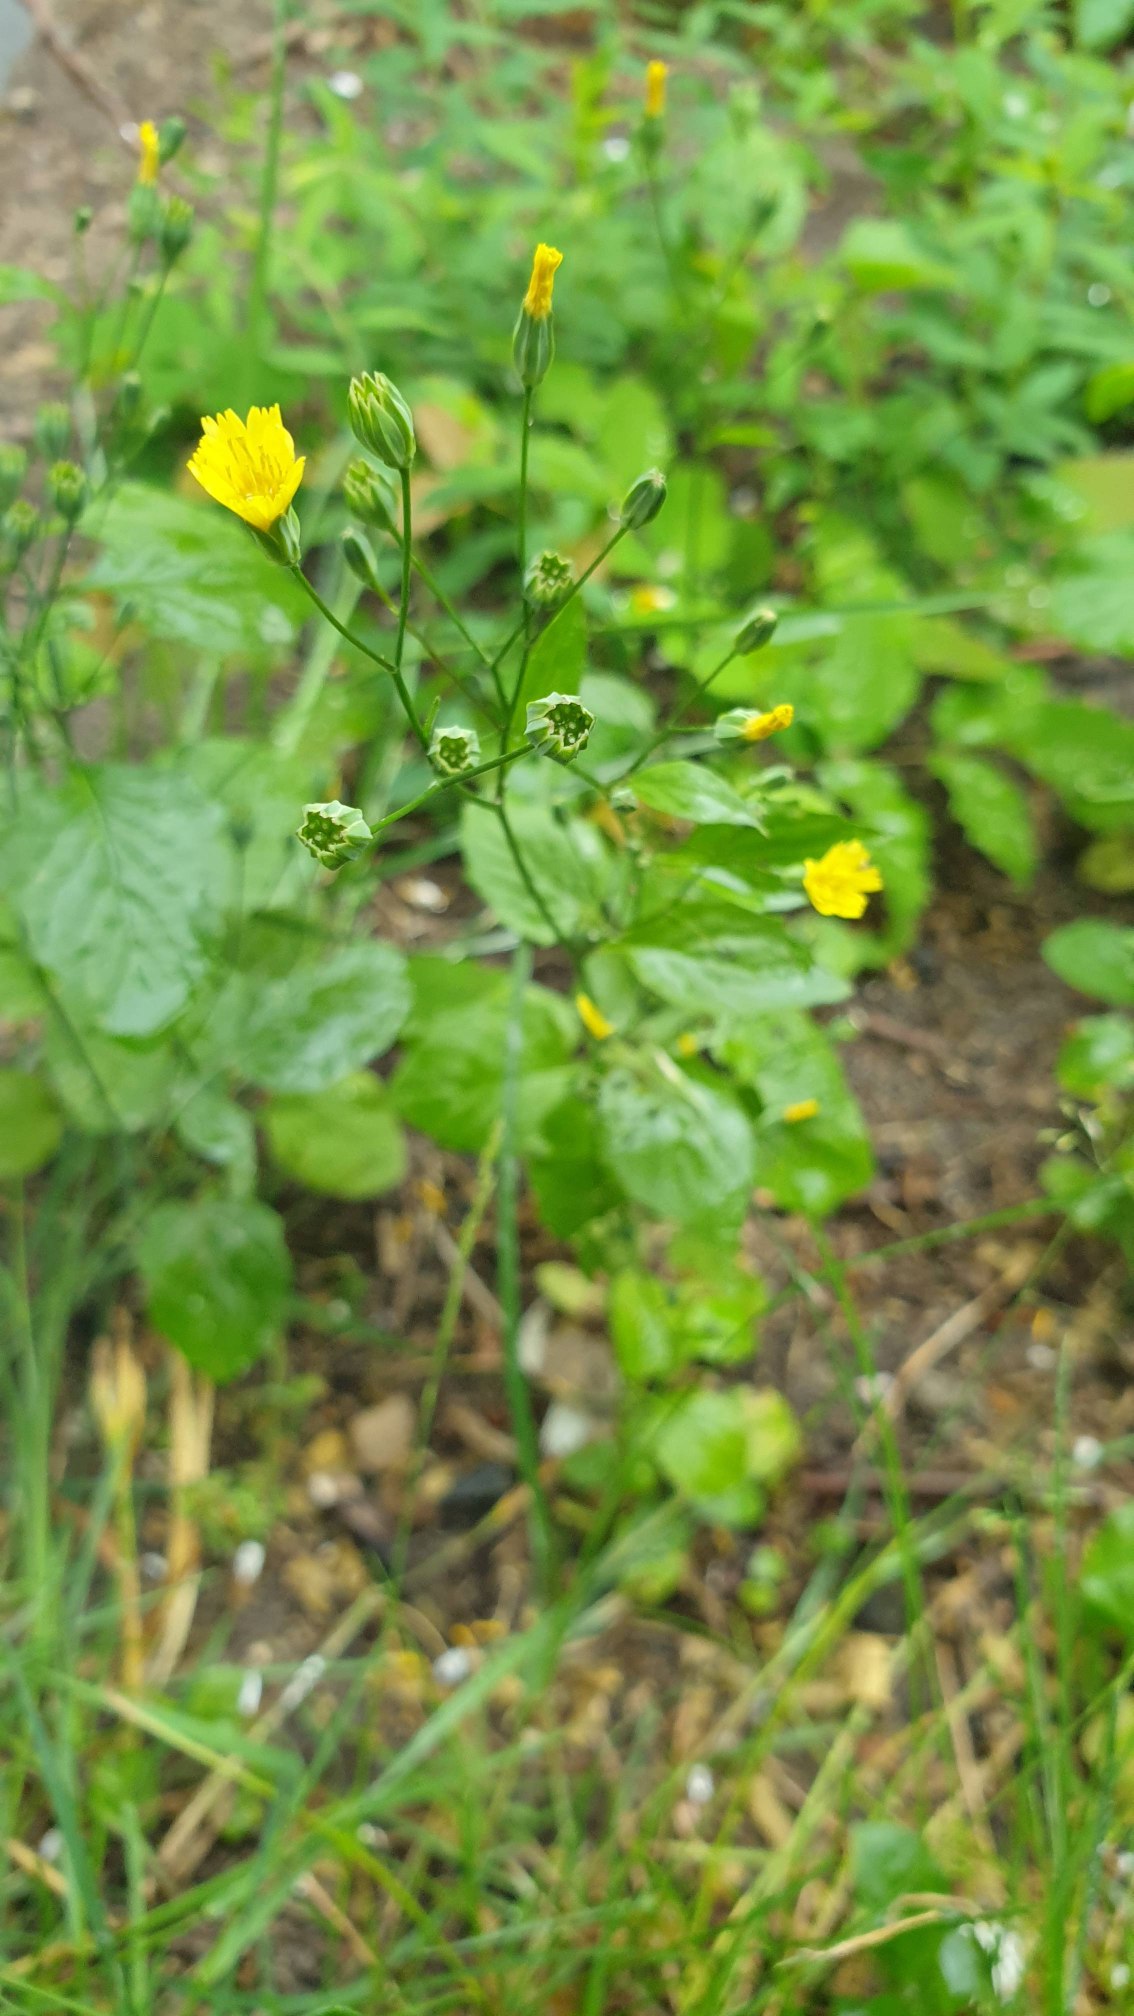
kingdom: Plantae
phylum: Tracheophyta
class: Magnoliopsida
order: Asterales
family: Asteraceae
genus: Lapsana
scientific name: Lapsana communis
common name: Haremad
